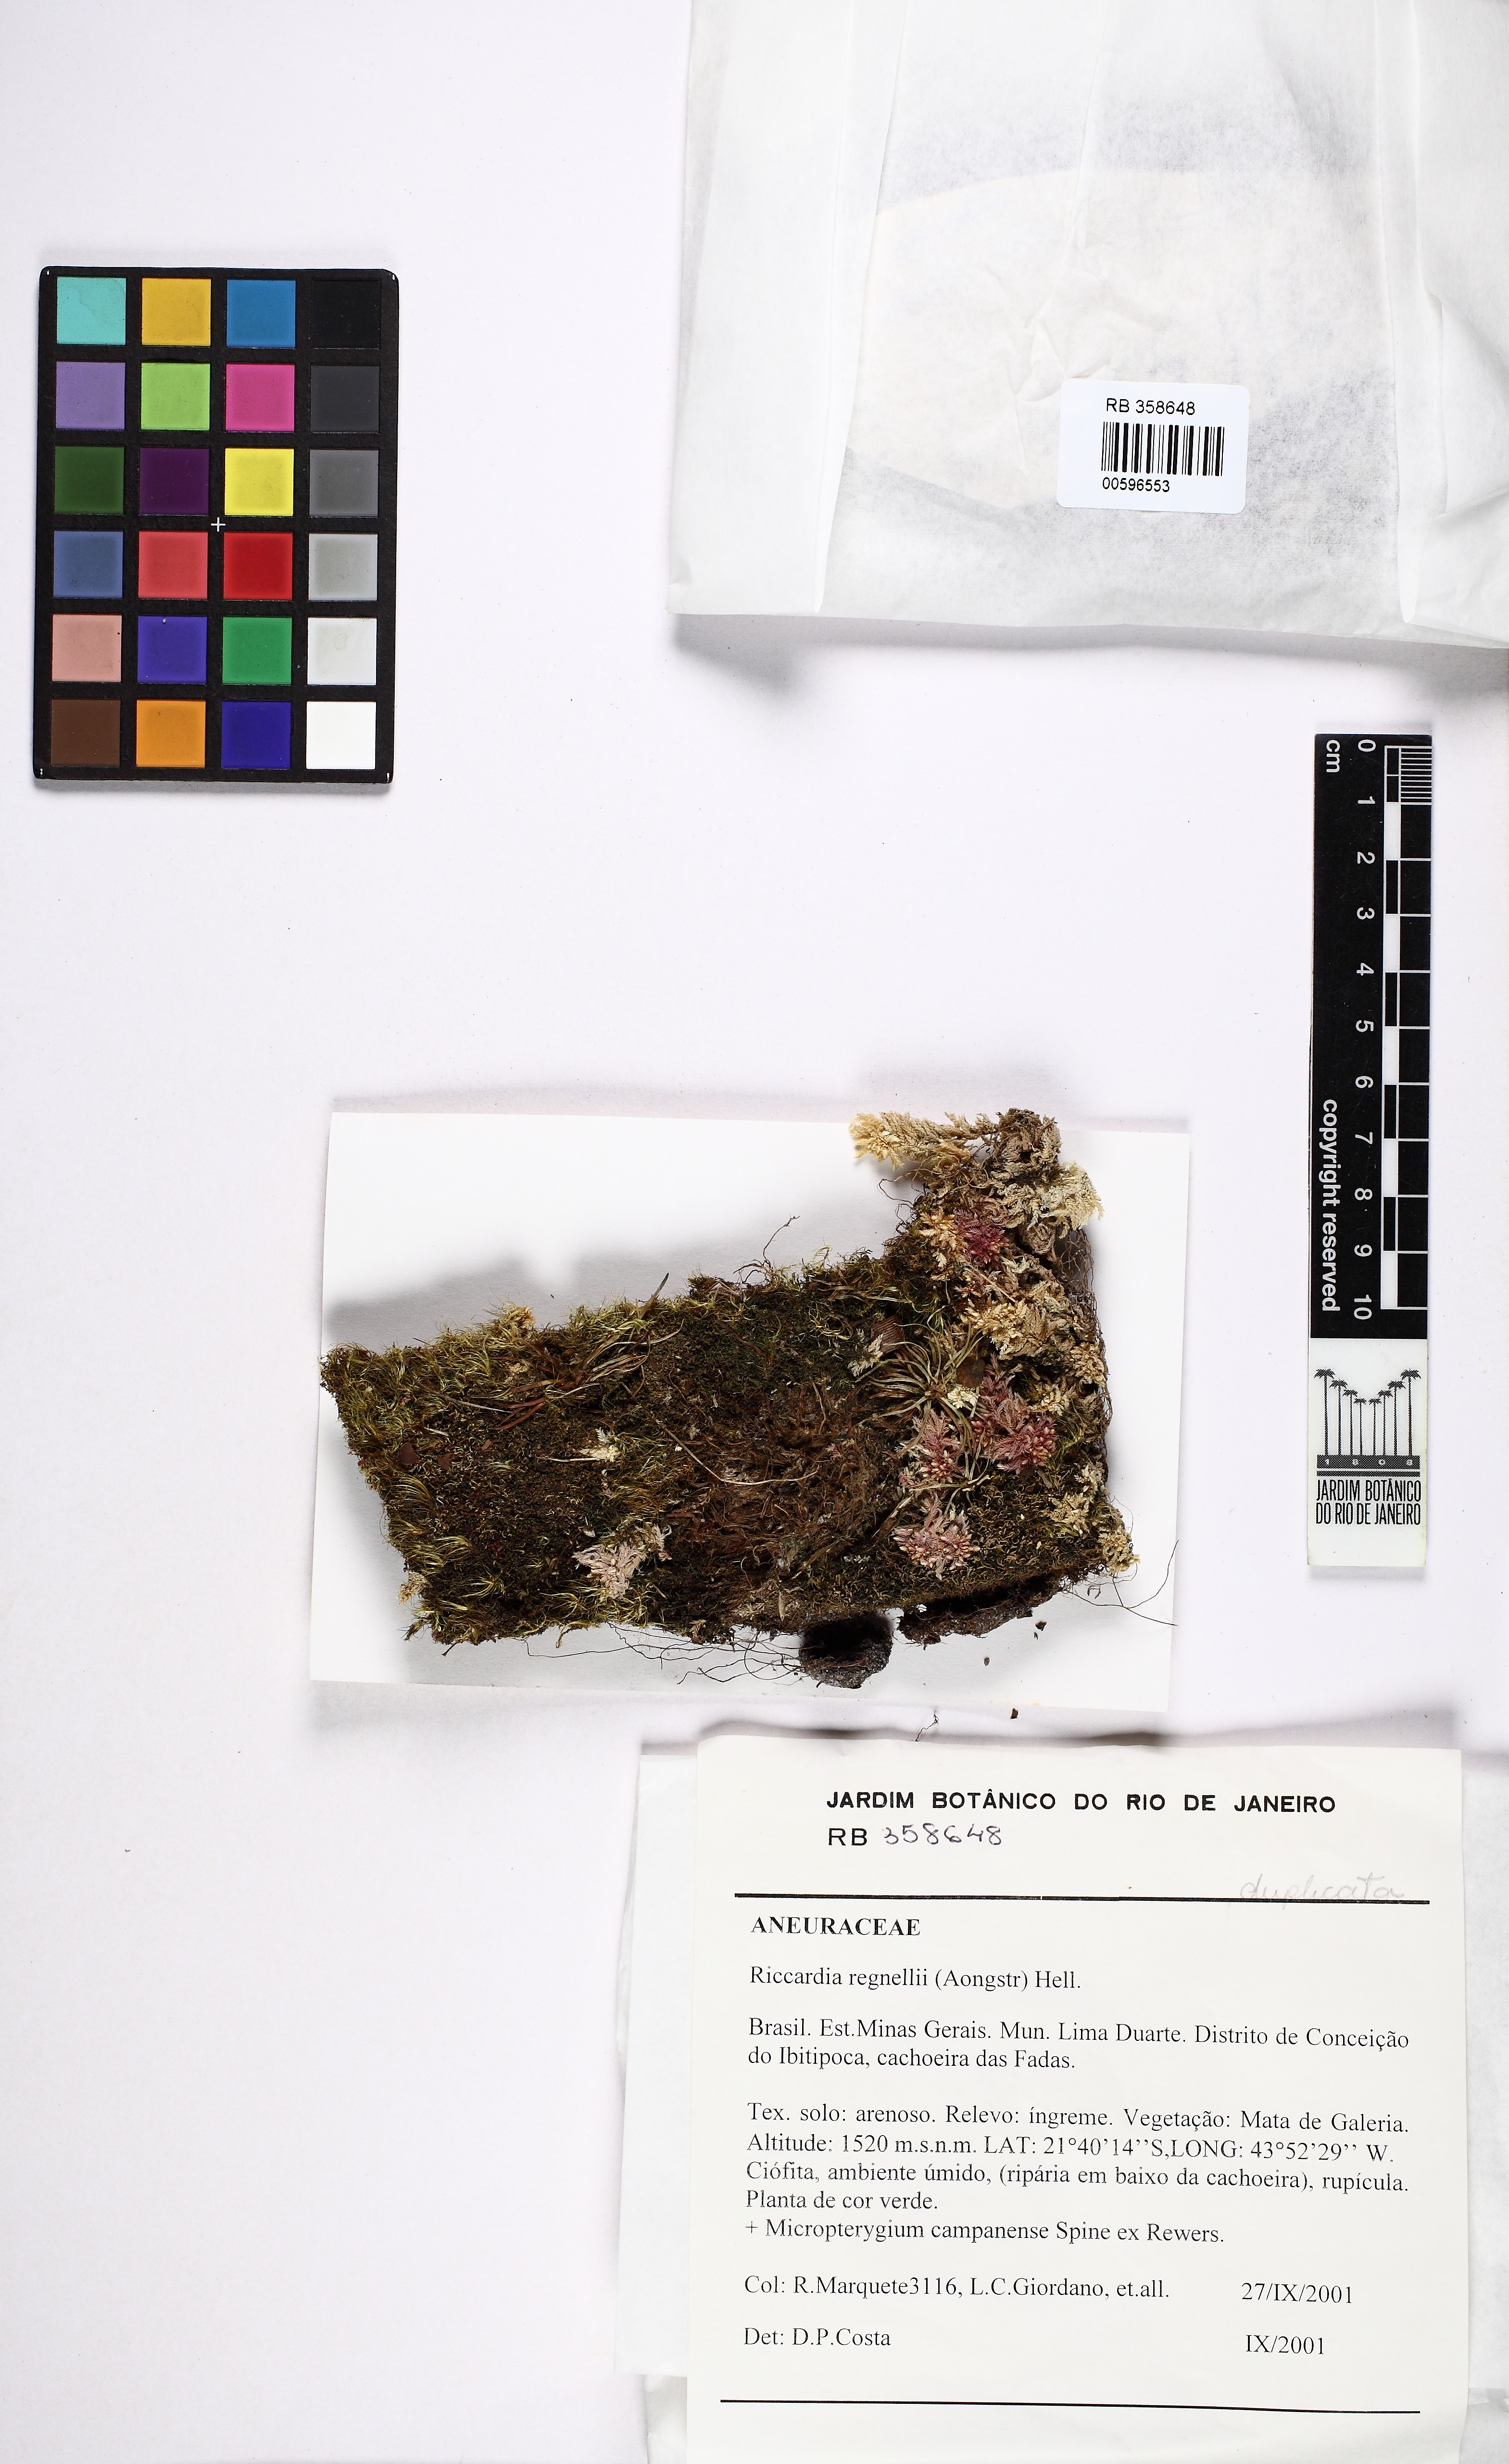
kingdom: Plantae
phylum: Marchantiophyta
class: Jungermanniopsida
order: Metzgeriales
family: Aneuraceae
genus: Riccardia
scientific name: Riccardia regnellii
